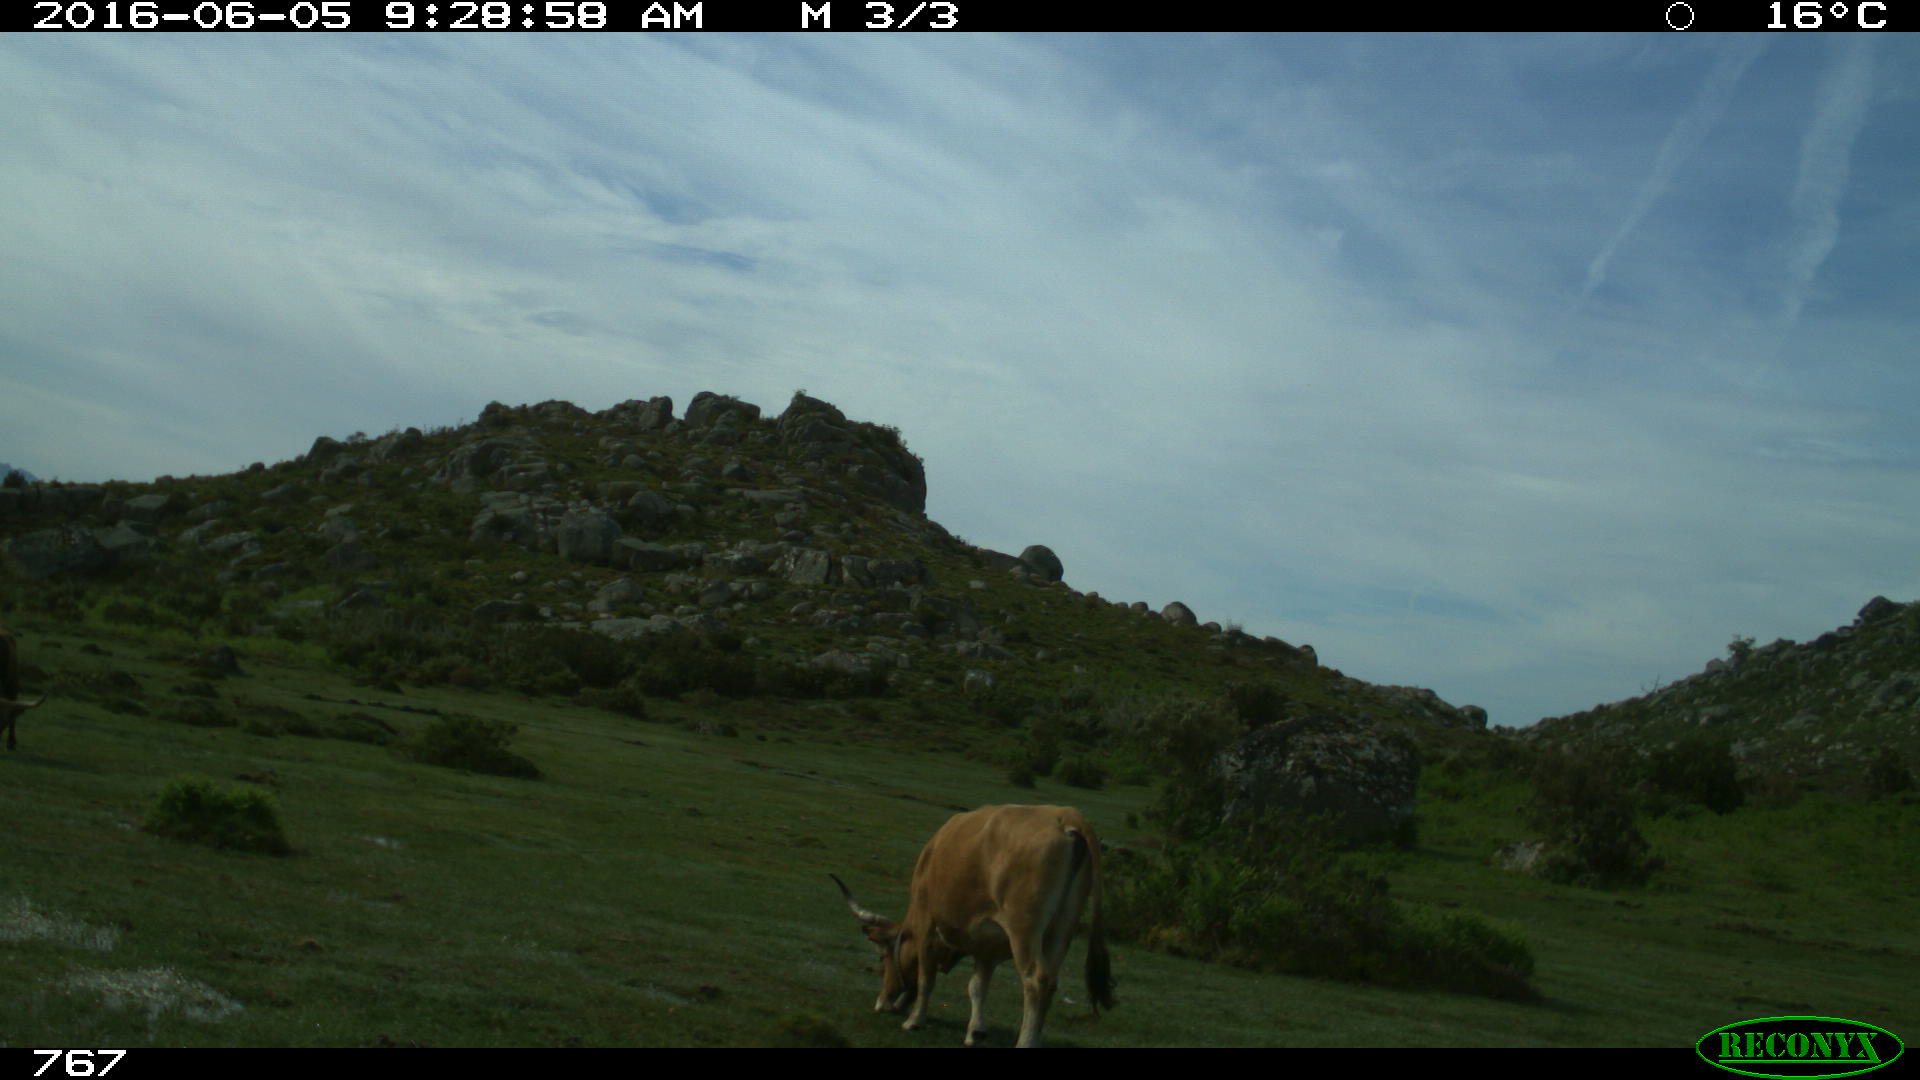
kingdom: Animalia
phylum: Chordata
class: Mammalia
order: Artiodactyla
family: Bovidae
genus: Bos
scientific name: Bos taurus
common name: Domesticated cattle
